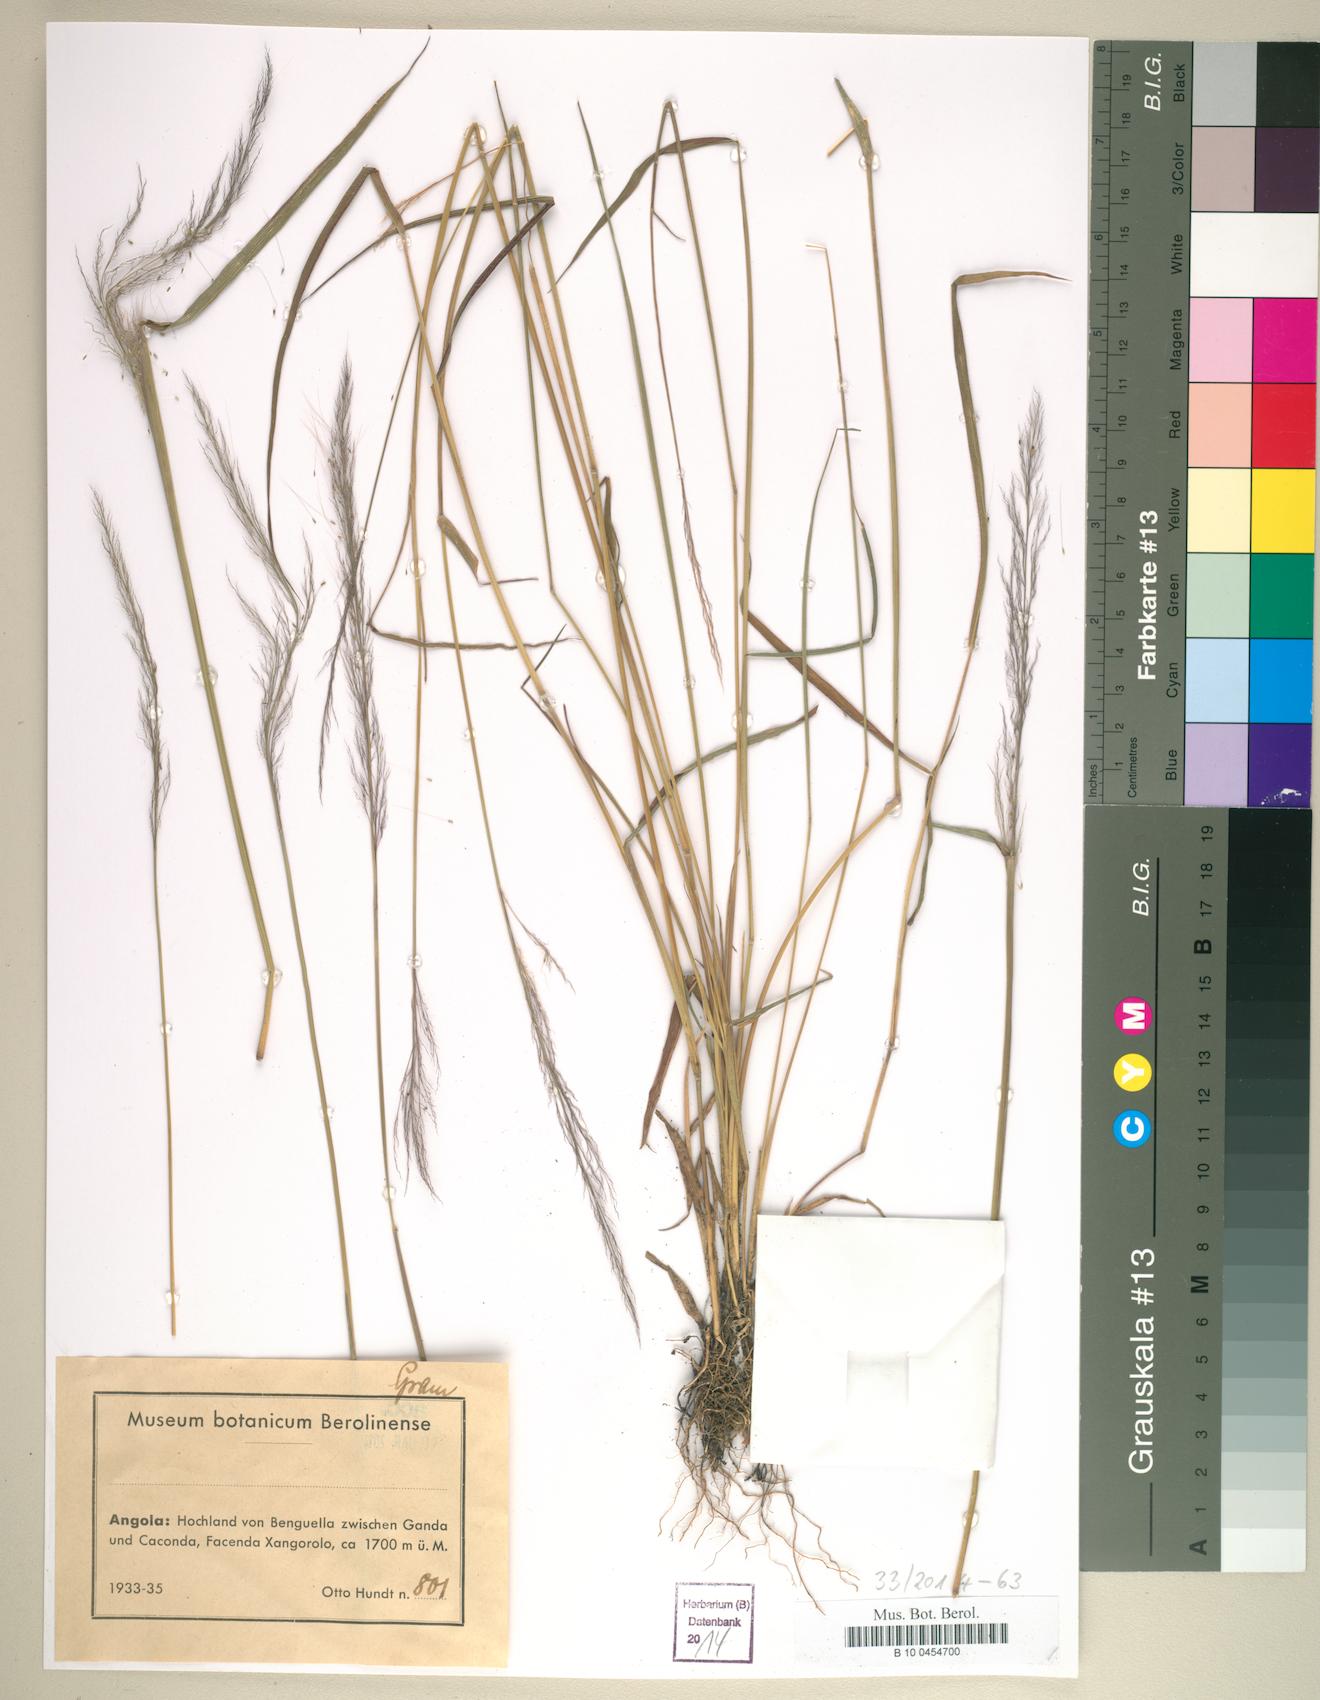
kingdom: Plantae
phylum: Tracheophyta
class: Liliopsida
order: Poales
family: Poaceae
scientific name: Poaceae
